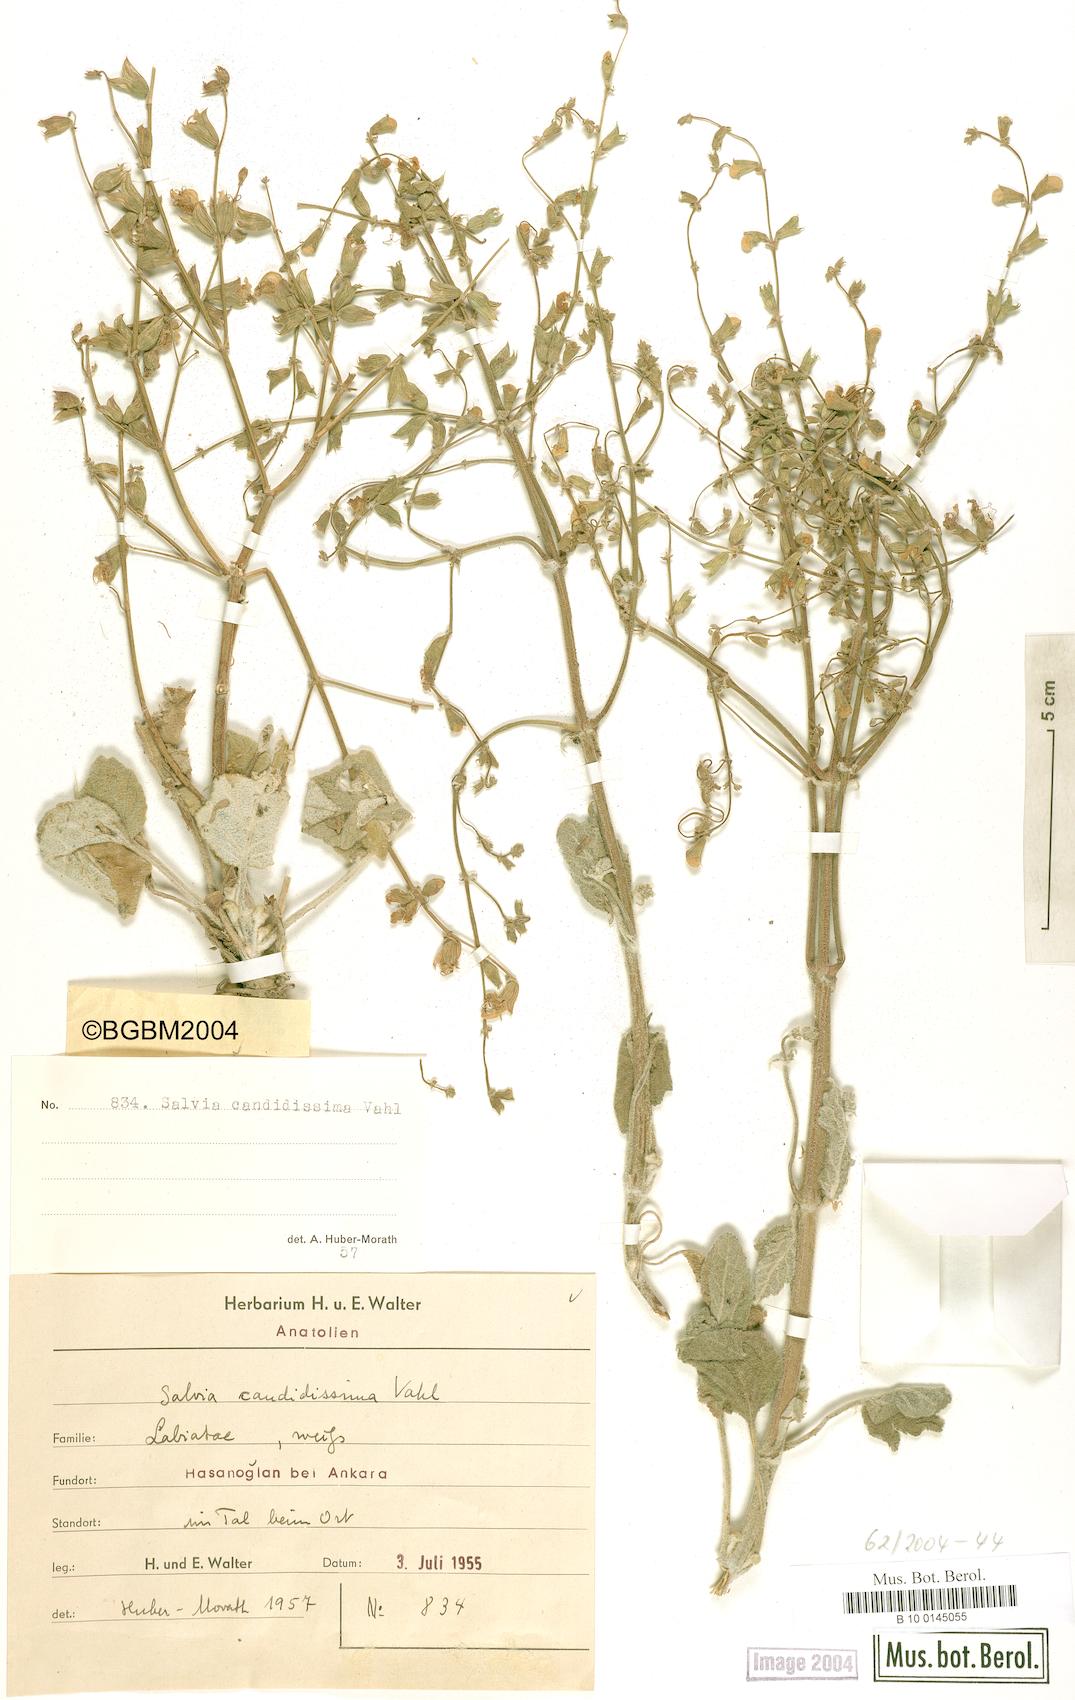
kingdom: Plantae
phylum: Tracheophyta
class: Magnoliopsida
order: Lamiales
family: Lamiaceae
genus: Salvia
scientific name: Salvia candidissima
